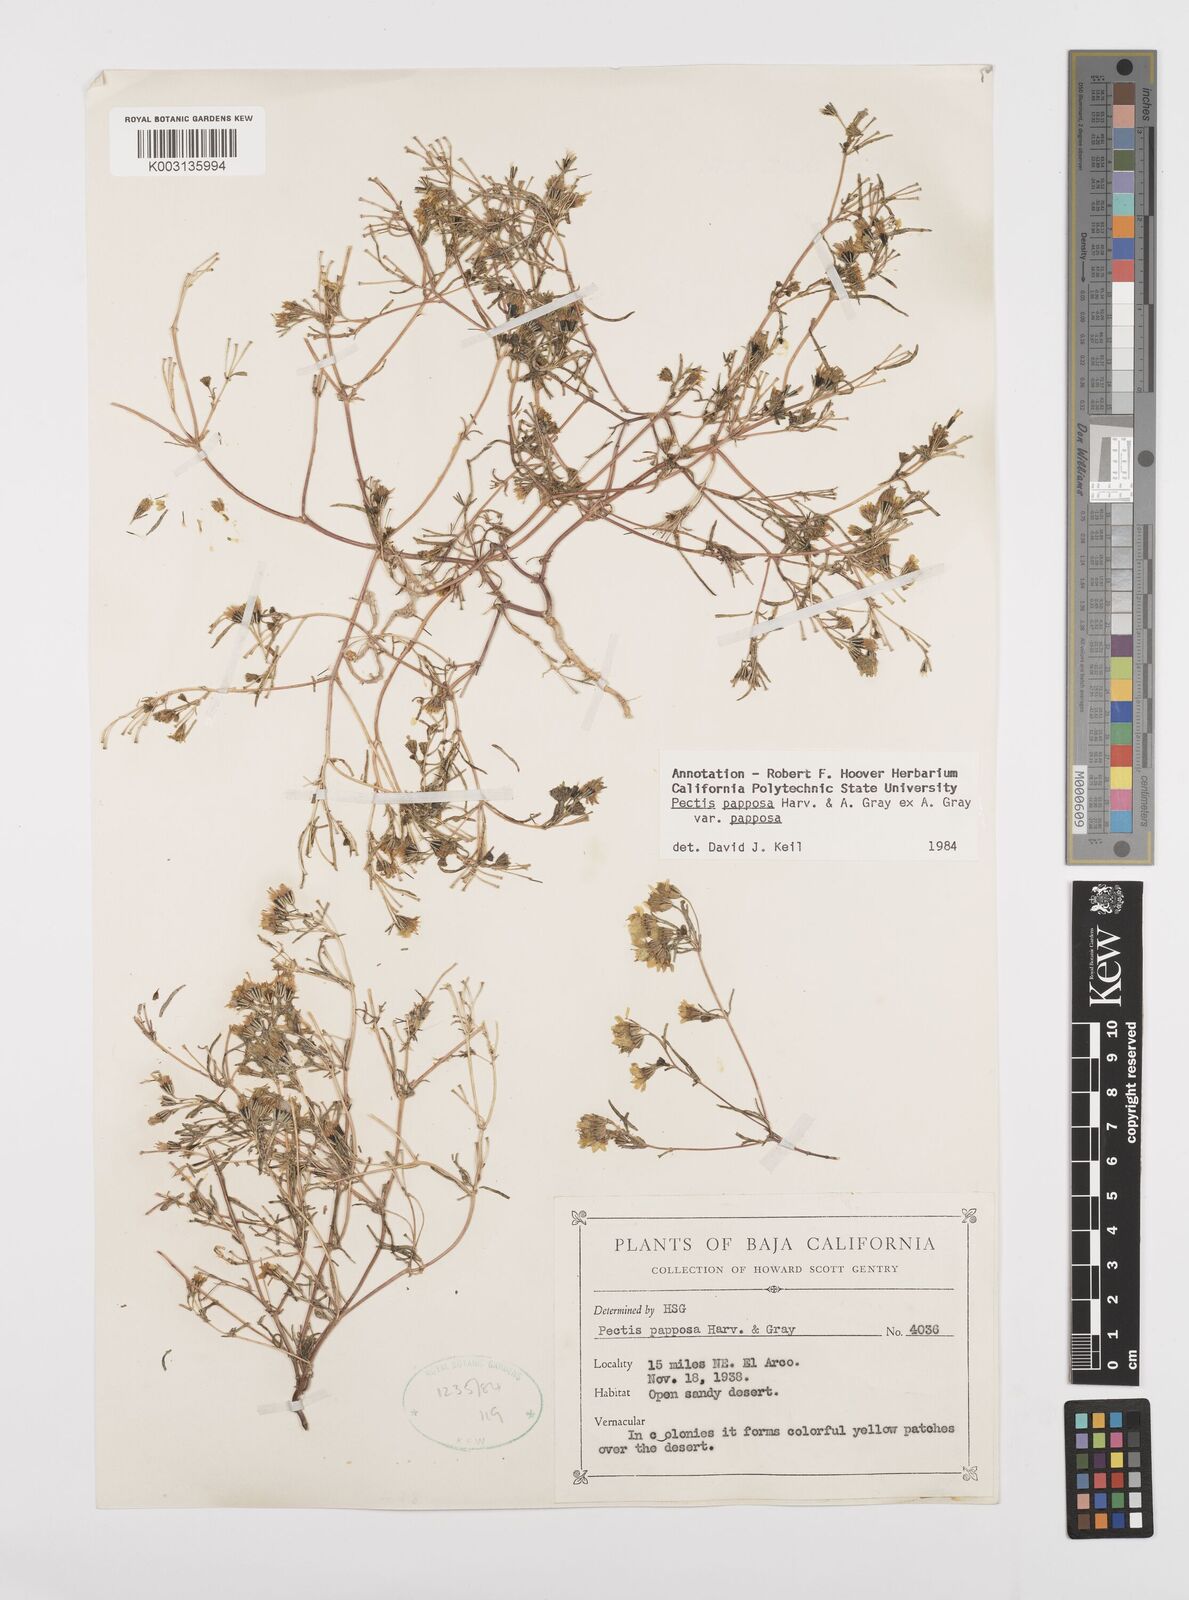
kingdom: Plantae
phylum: Tracheophyta
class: Magnoliopsida
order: Asterales
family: Asteraceae
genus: Pectis
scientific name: Pectis papposa
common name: Many-bristle chinchweed
